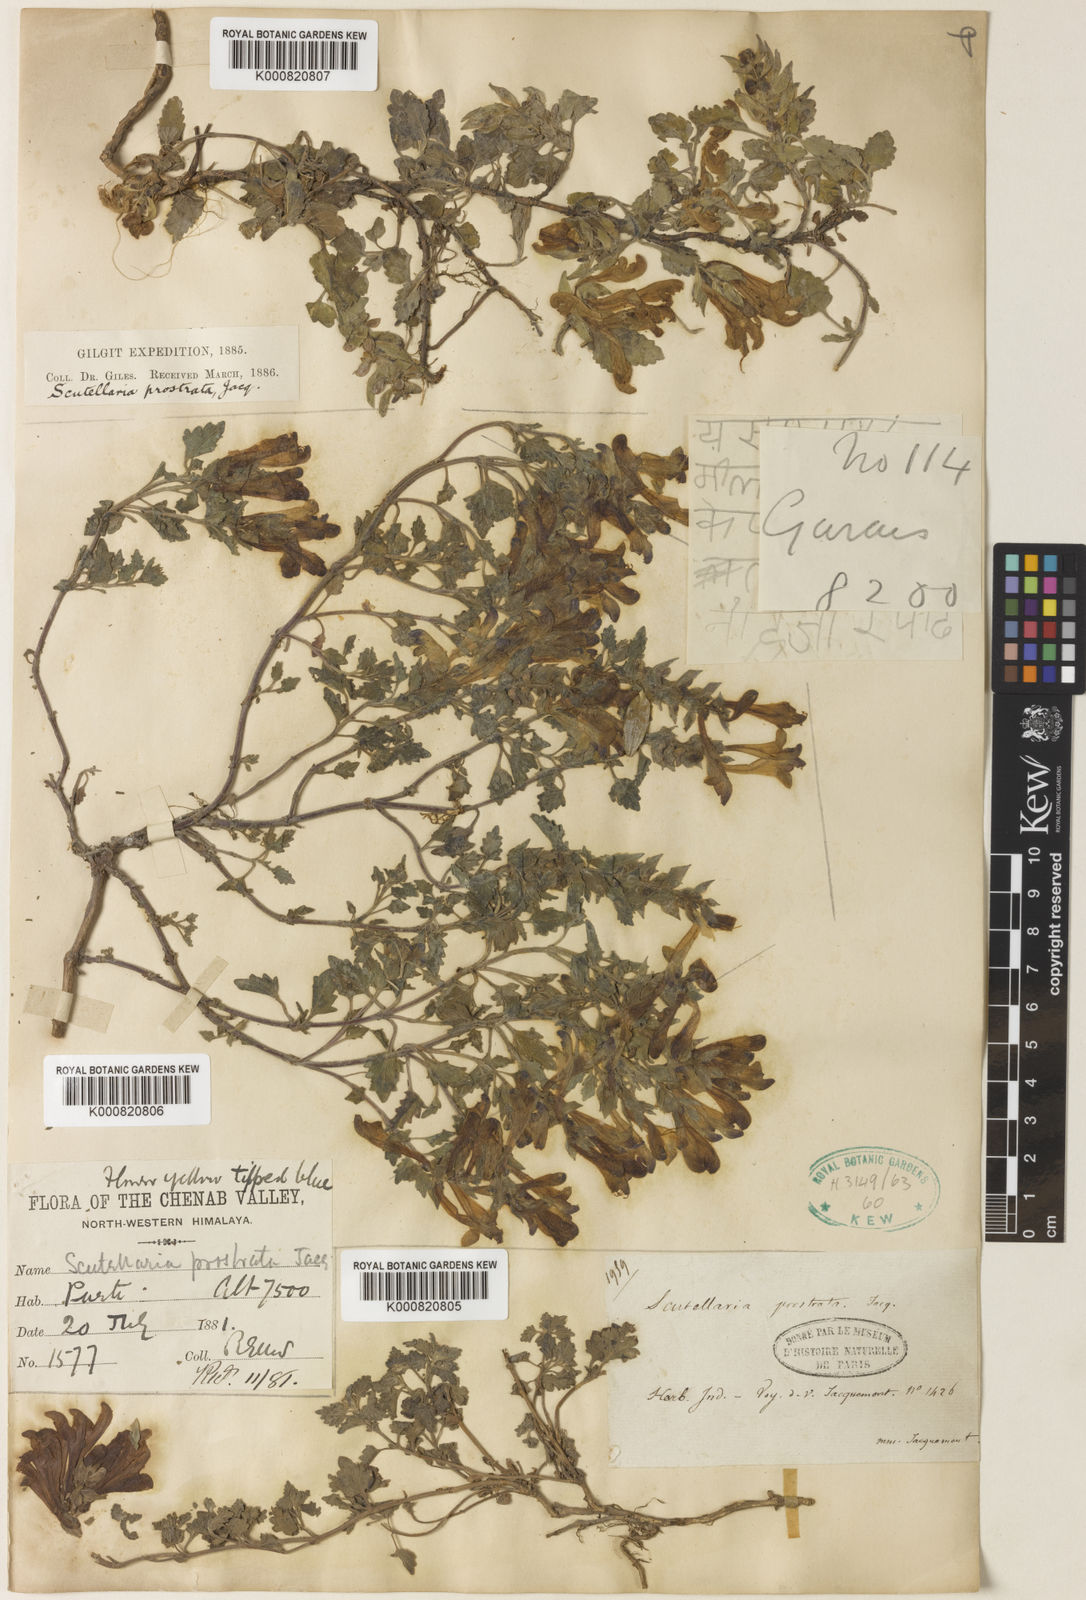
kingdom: Plantae
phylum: Tracheophyta
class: Magnoliopsida
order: Lamiales
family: Lamiaceae
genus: Scutellaria
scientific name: Scutellaria prostrata
